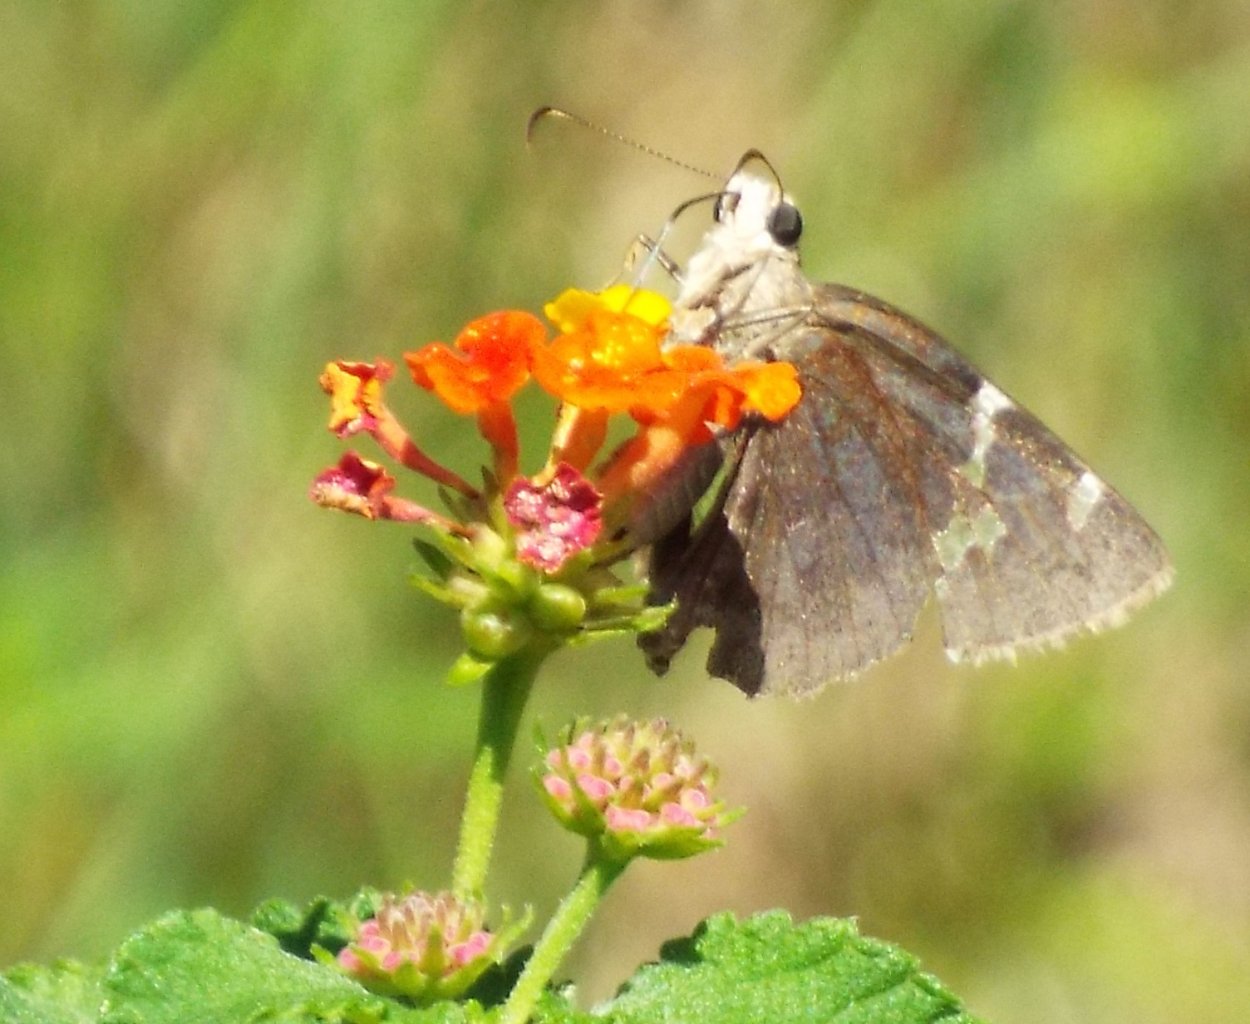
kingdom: Animalia
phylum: Arthropoda
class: Insecta
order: Lepidoptera
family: Hesperiidae
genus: Autochton
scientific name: Autochton
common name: Southern Cloudywing
